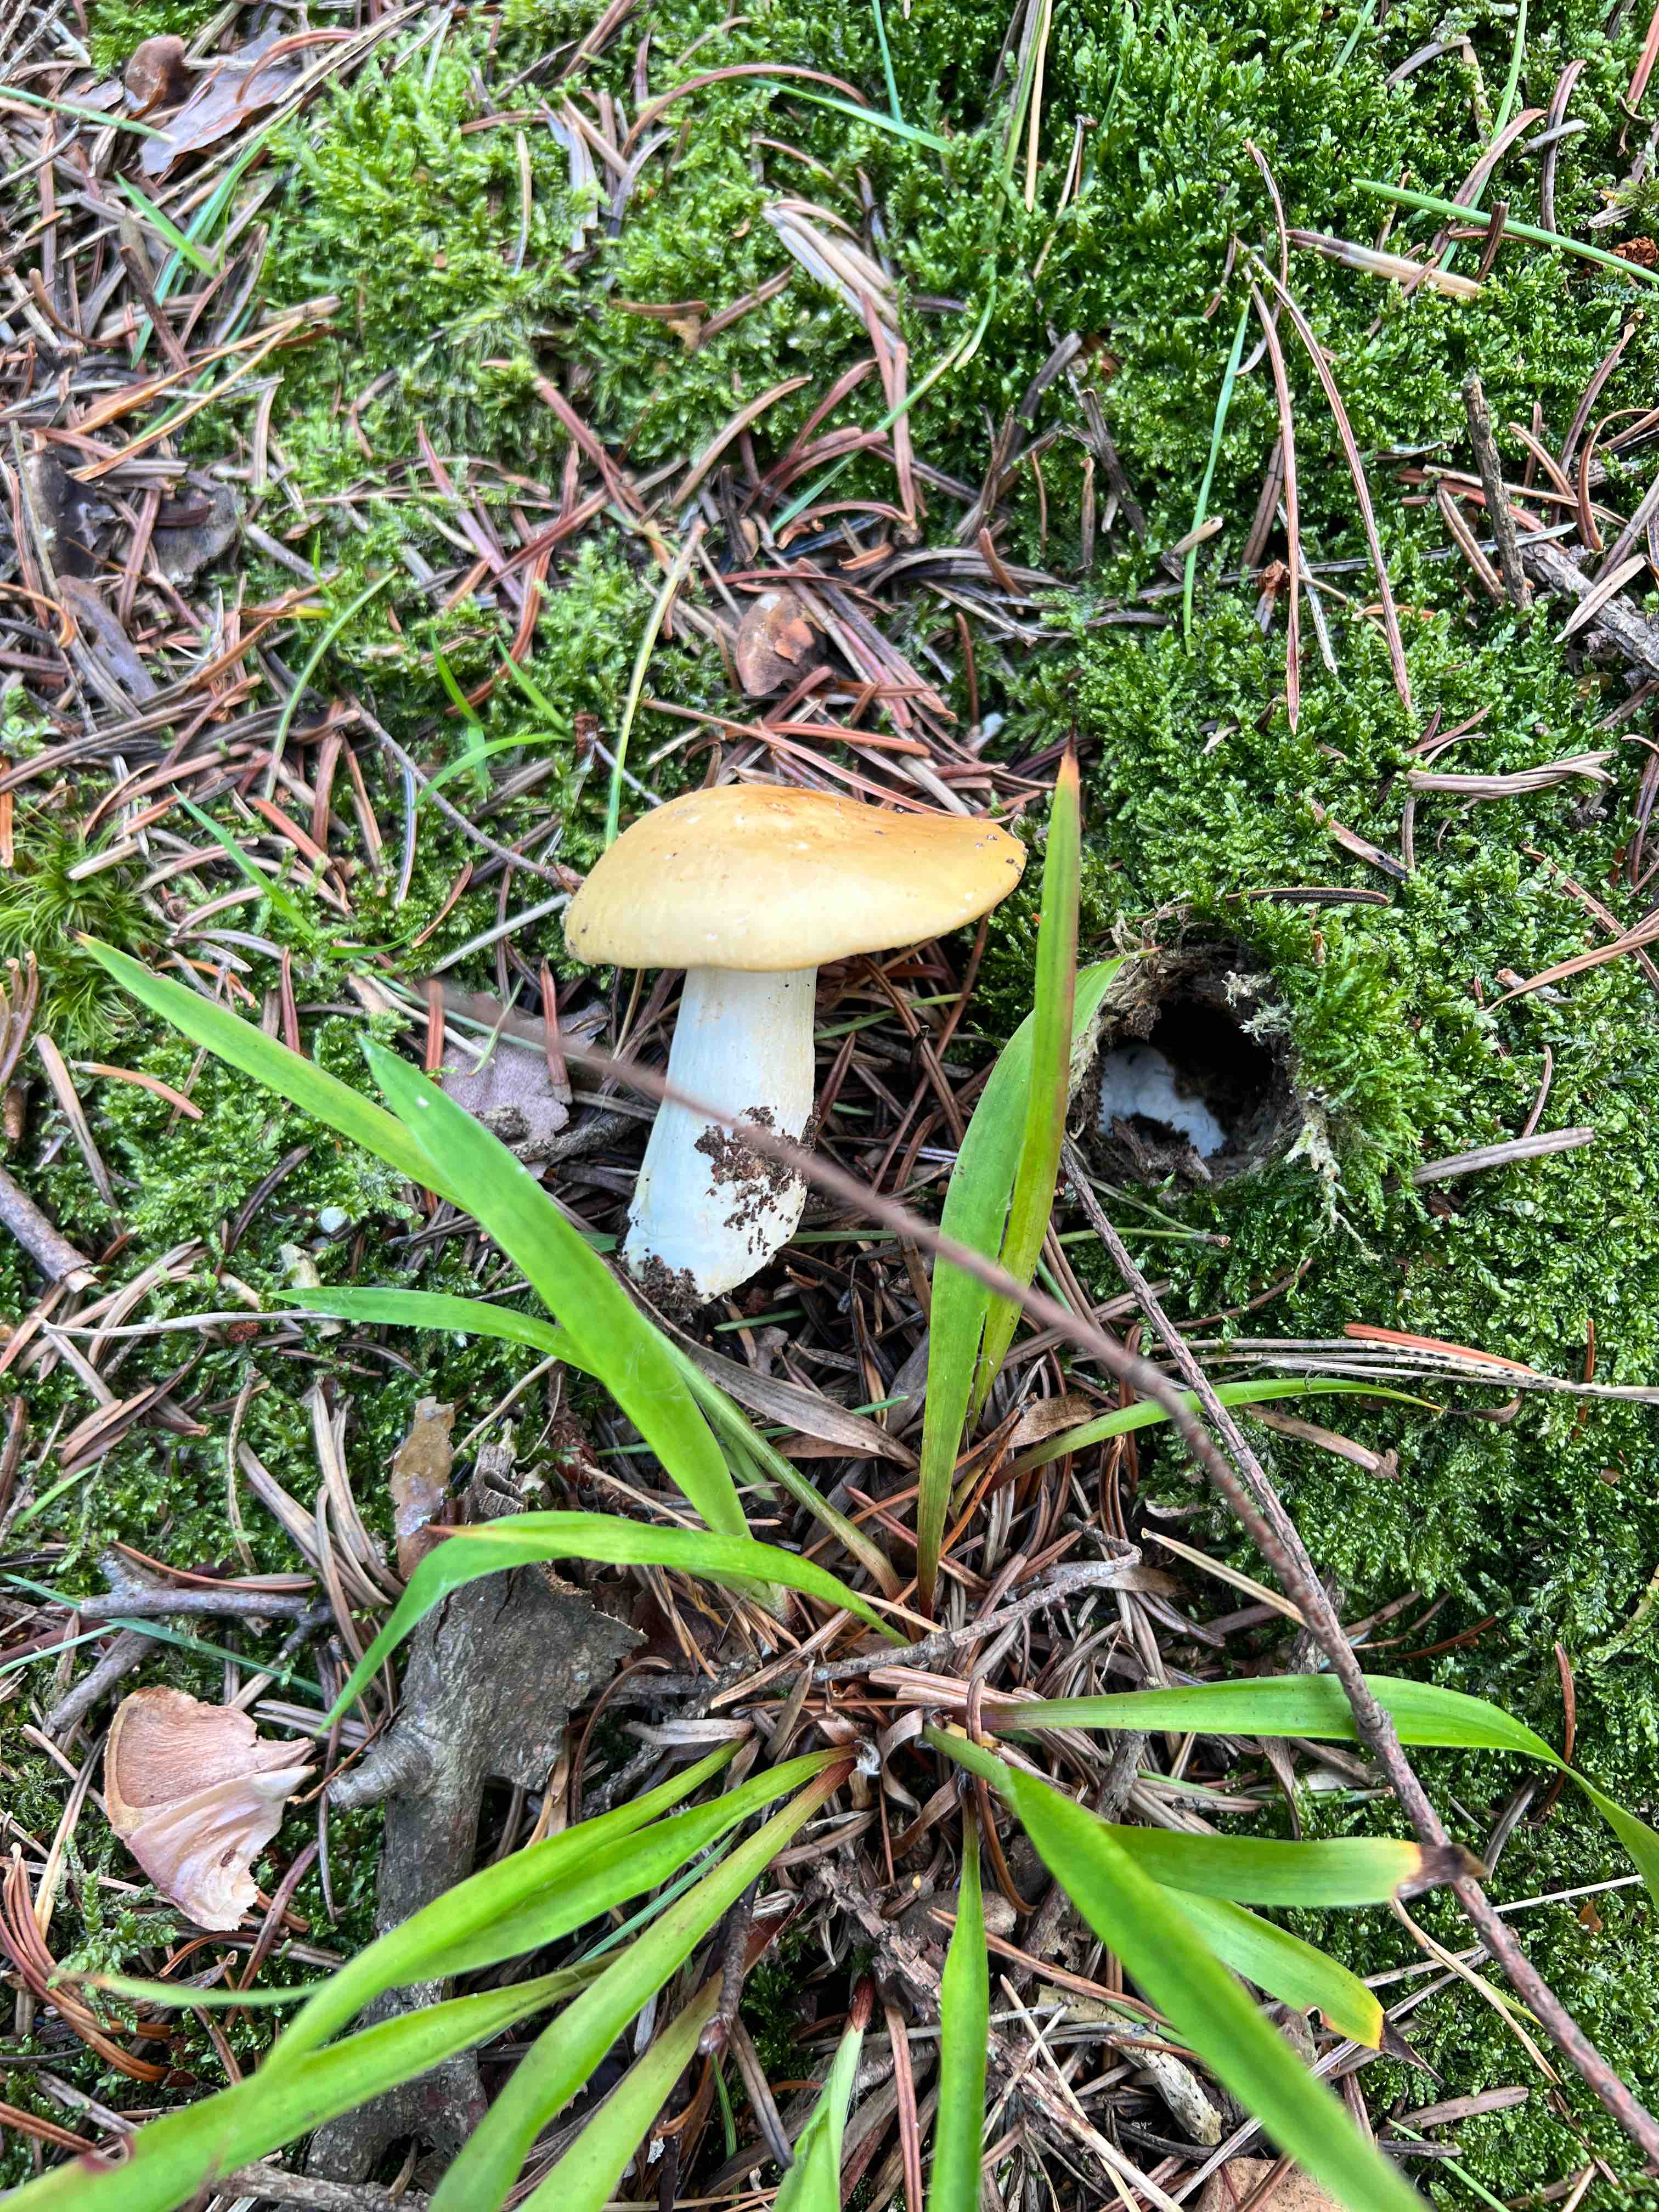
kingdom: Fungi
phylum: Basidiomycota
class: Agaricomycetes
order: Russulales
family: Russulaceae
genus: Russula
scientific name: Russula ochroleuca
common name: okkergul skørhat
